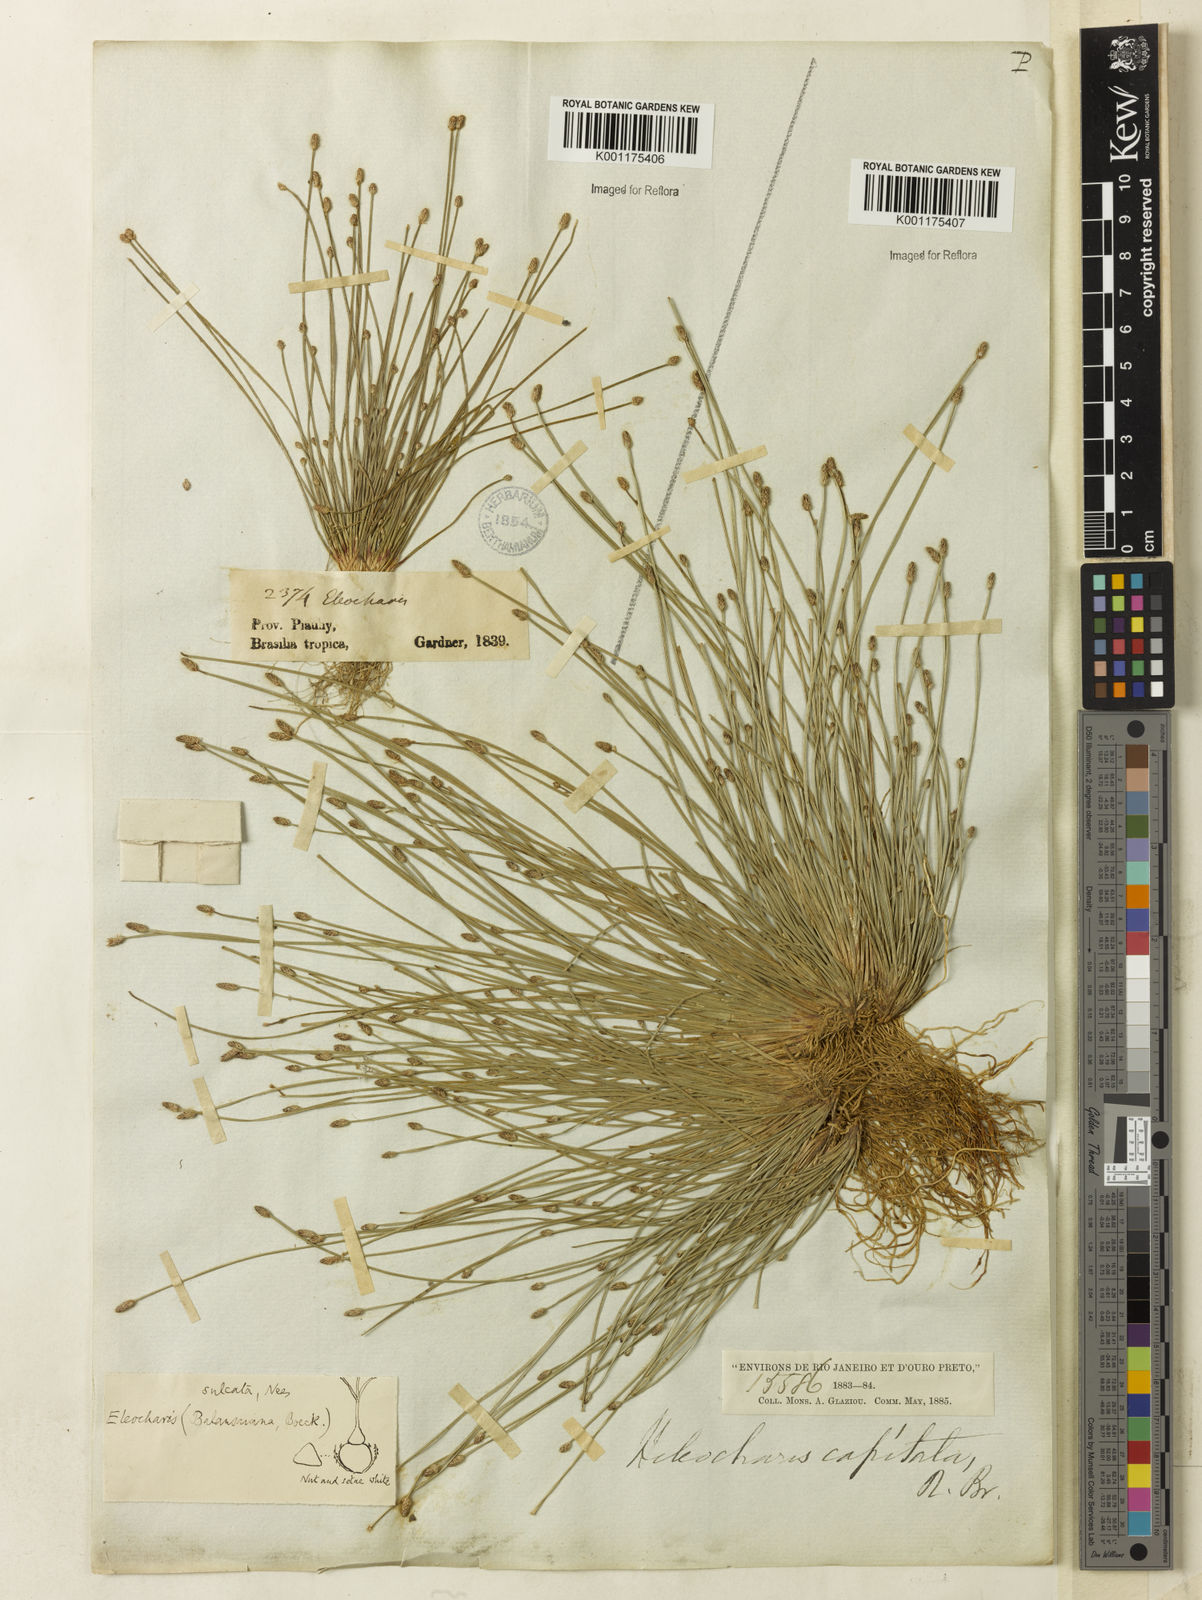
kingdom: Plantae
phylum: Tracheophyta
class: Liliopsida
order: Poales
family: Cyperaceae
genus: Eleocharis
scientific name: Eleocharis filiculmis
